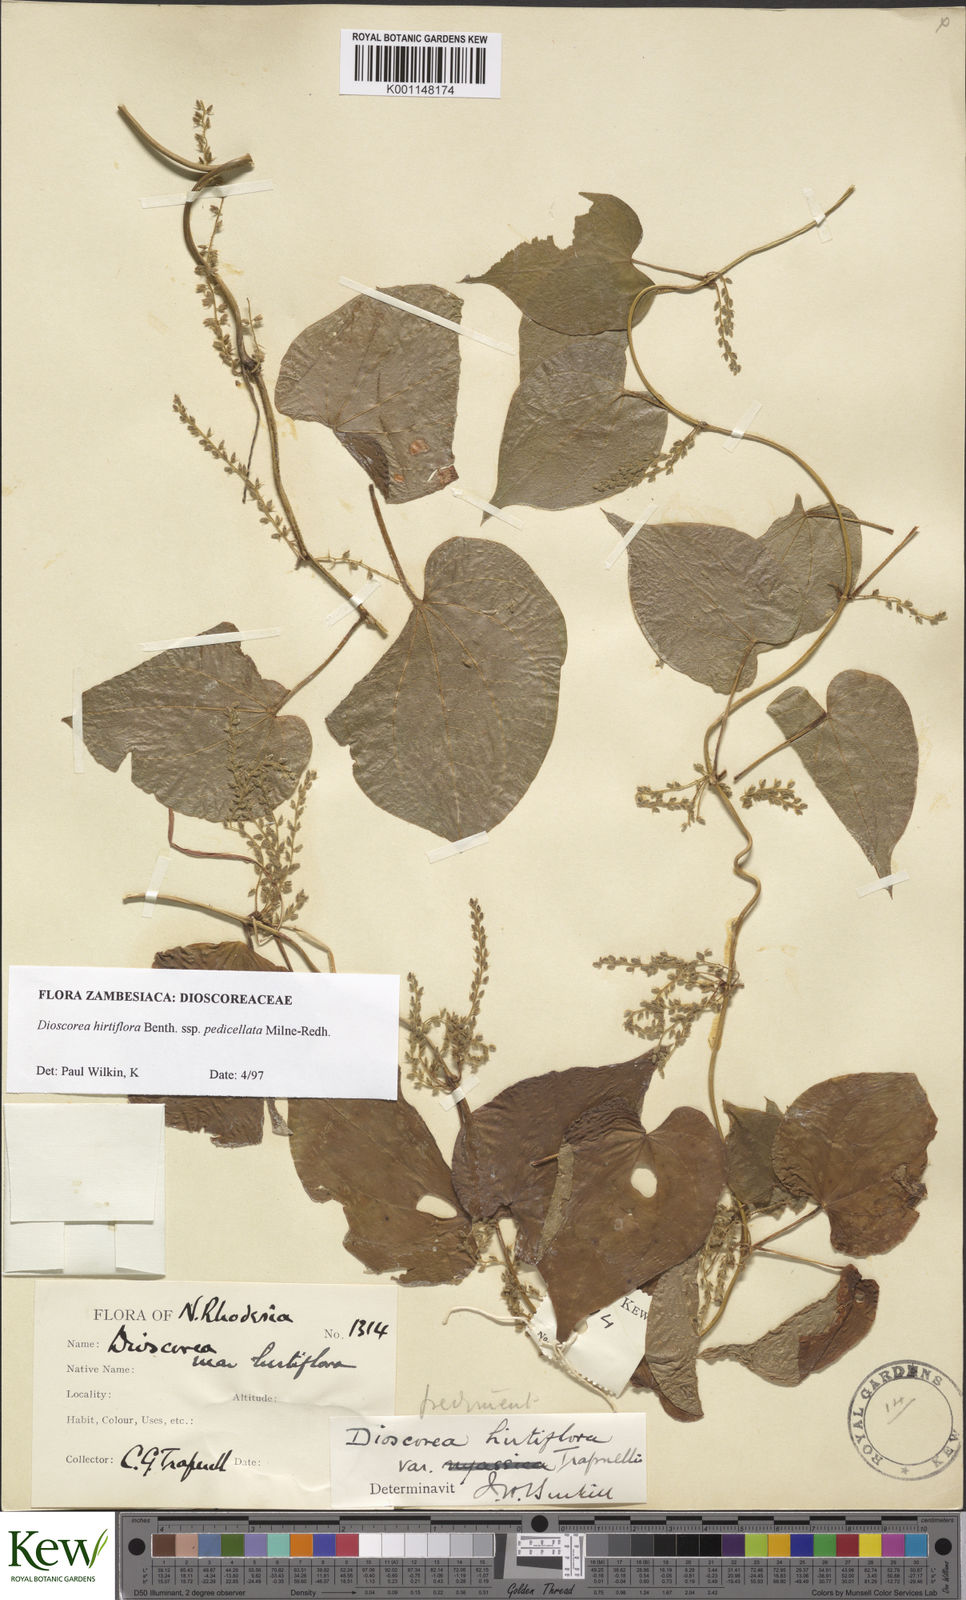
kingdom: Plantae
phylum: Tracheophyta
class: Liliopsida
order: Dioscoreales
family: Dioscoreaceae
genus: Dioscorea
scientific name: Dioscorea hirtiflora
